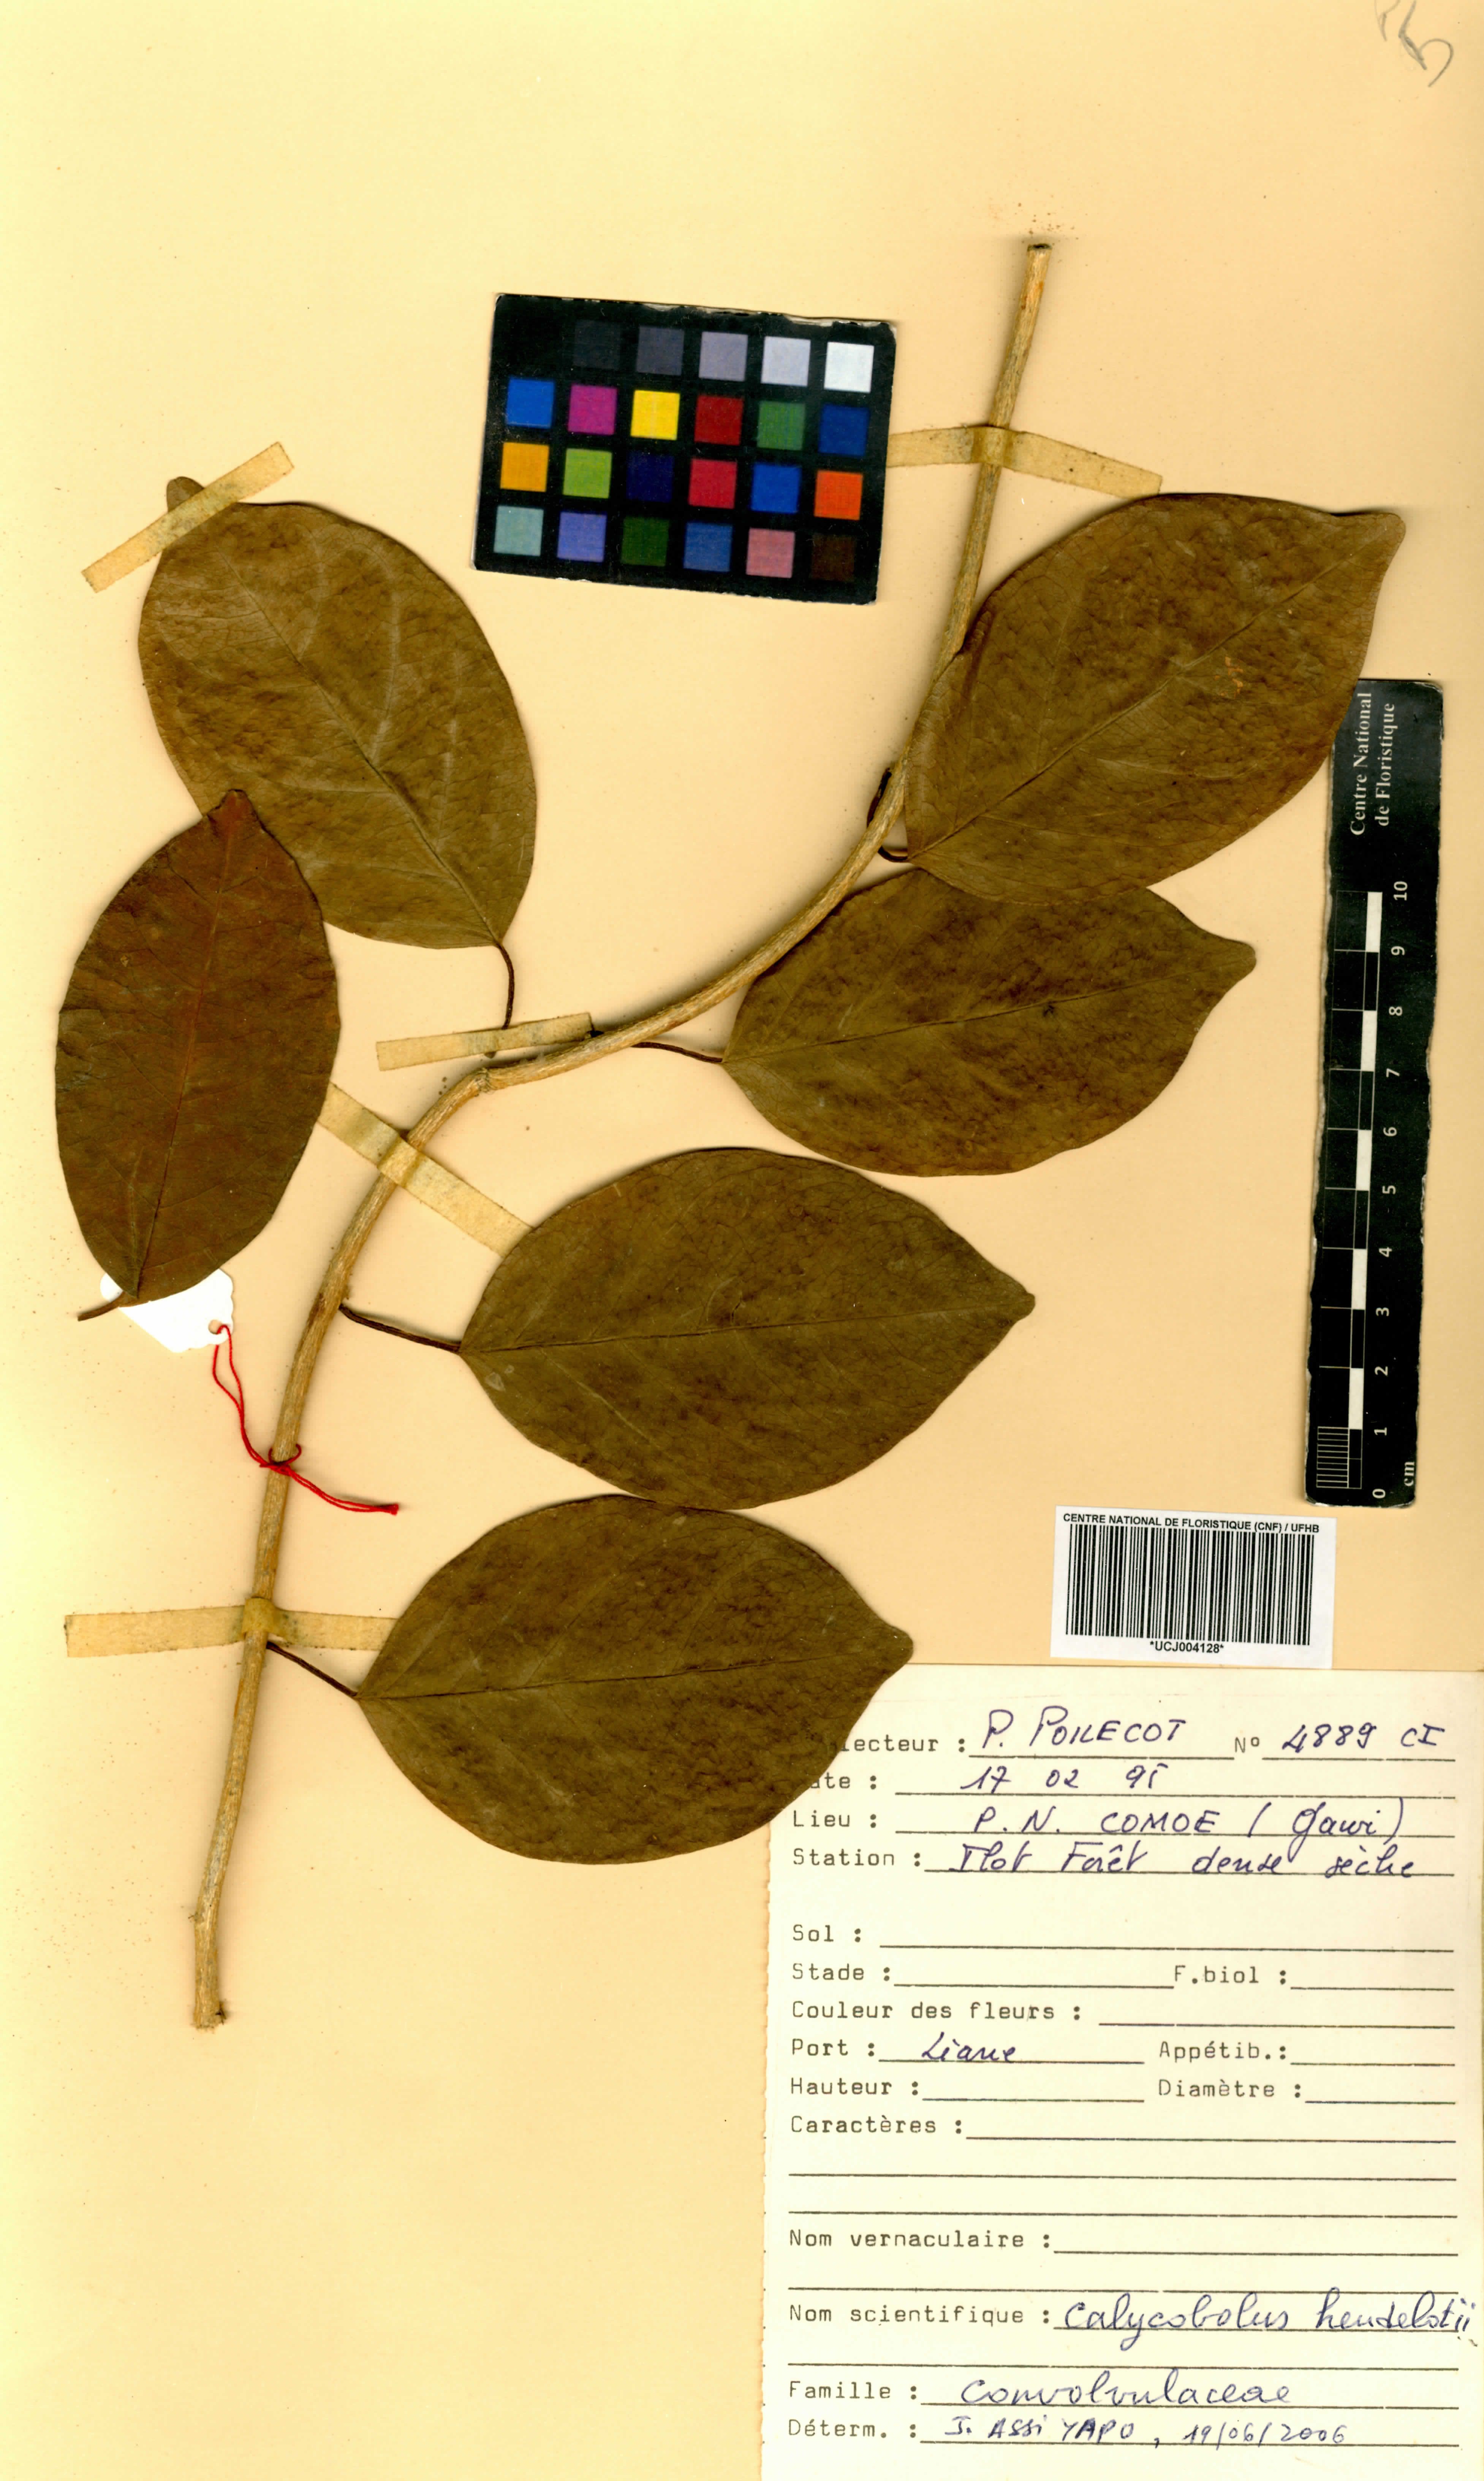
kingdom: Plantae
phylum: Tracheophyta
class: Magnoliopsida
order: Solanales
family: Convolvulaceae
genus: Calycobolus
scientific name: Calycobolus heudelotii
